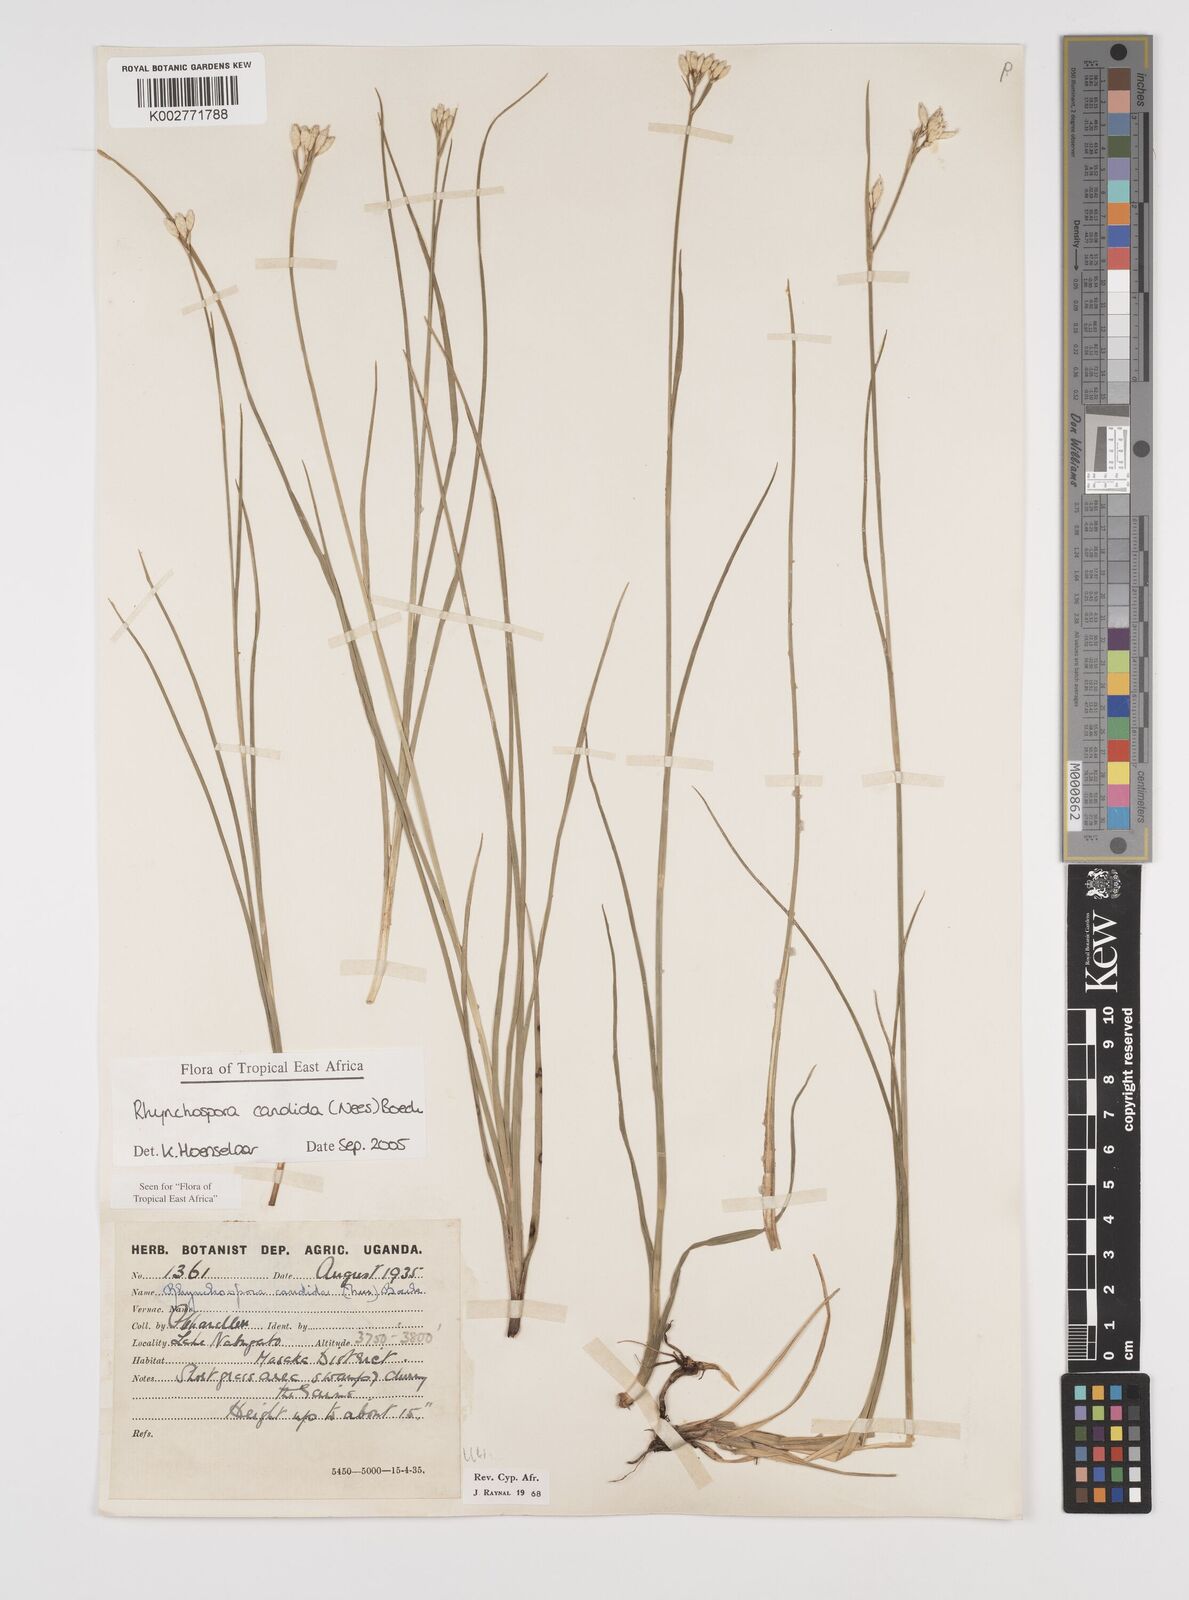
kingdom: Plantae
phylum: Tracheophyta
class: Liliopsida
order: Poales
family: Cyperaceae
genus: Rhynchospora
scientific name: Rhynchospora candida
